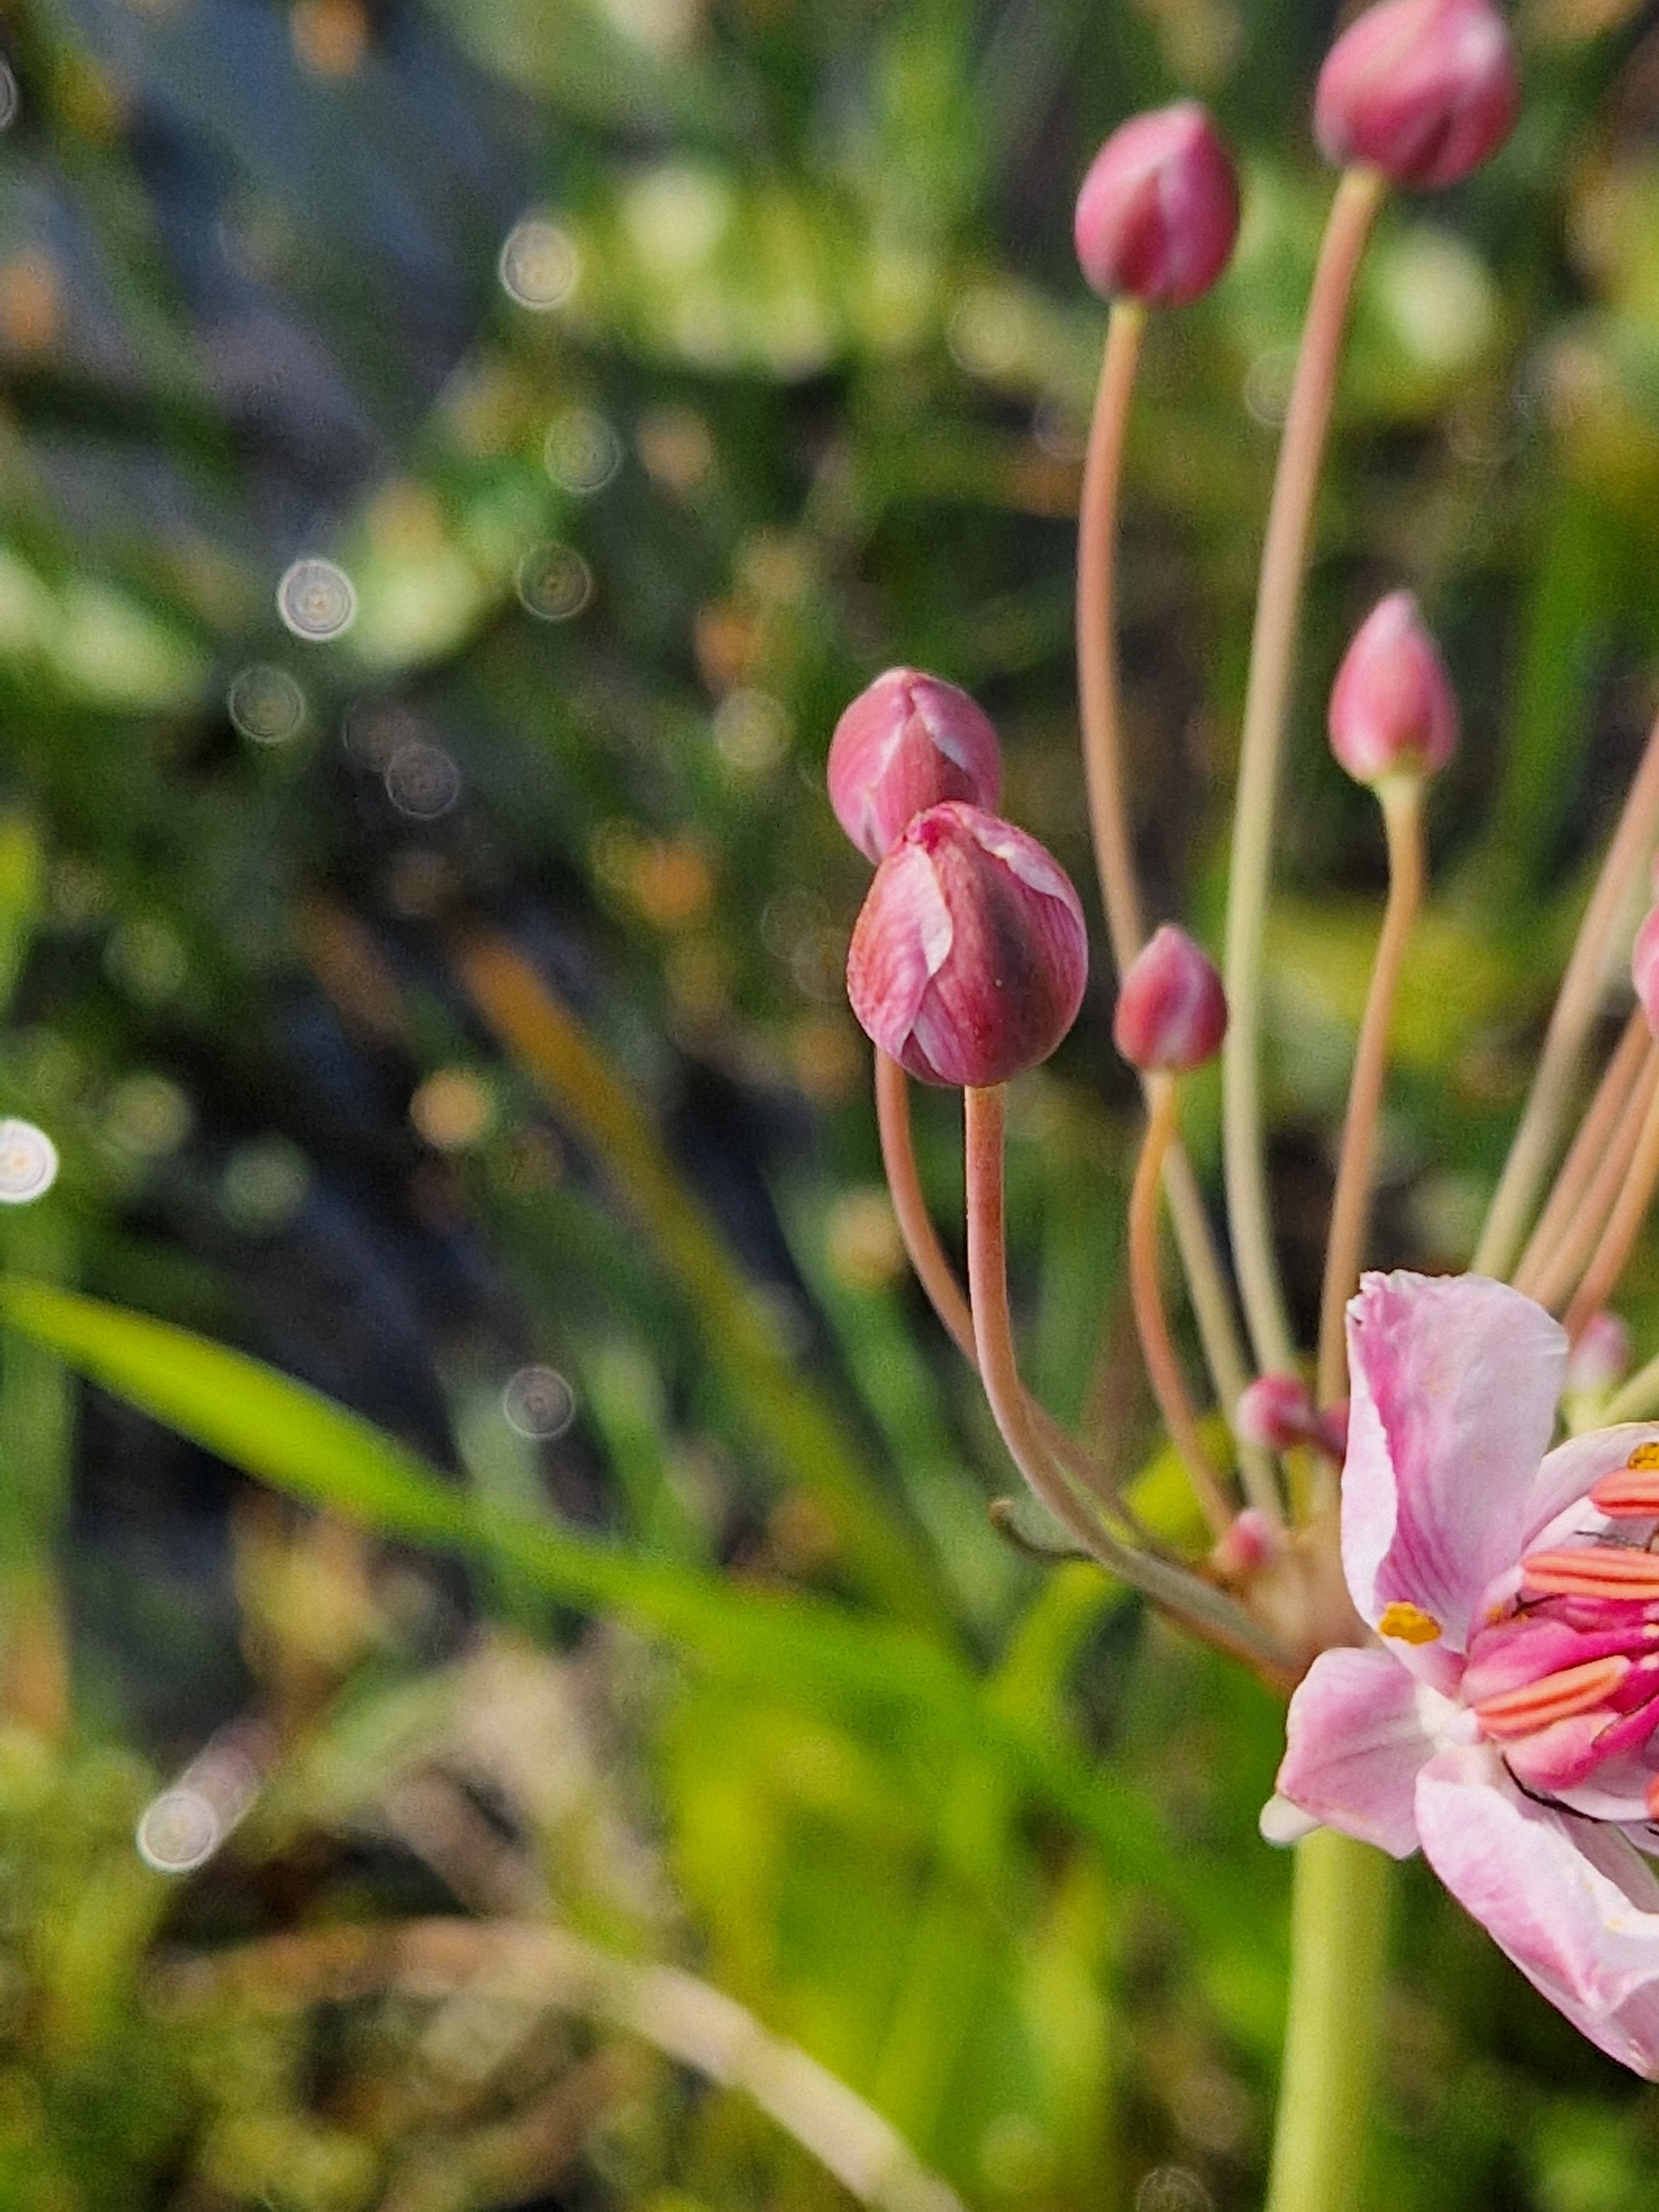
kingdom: Plantae
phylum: Tracheophyta
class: Liliopsida
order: Alismatales
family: Butomaceae
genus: Butomus
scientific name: Butomus umbellatus
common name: Brudelys
